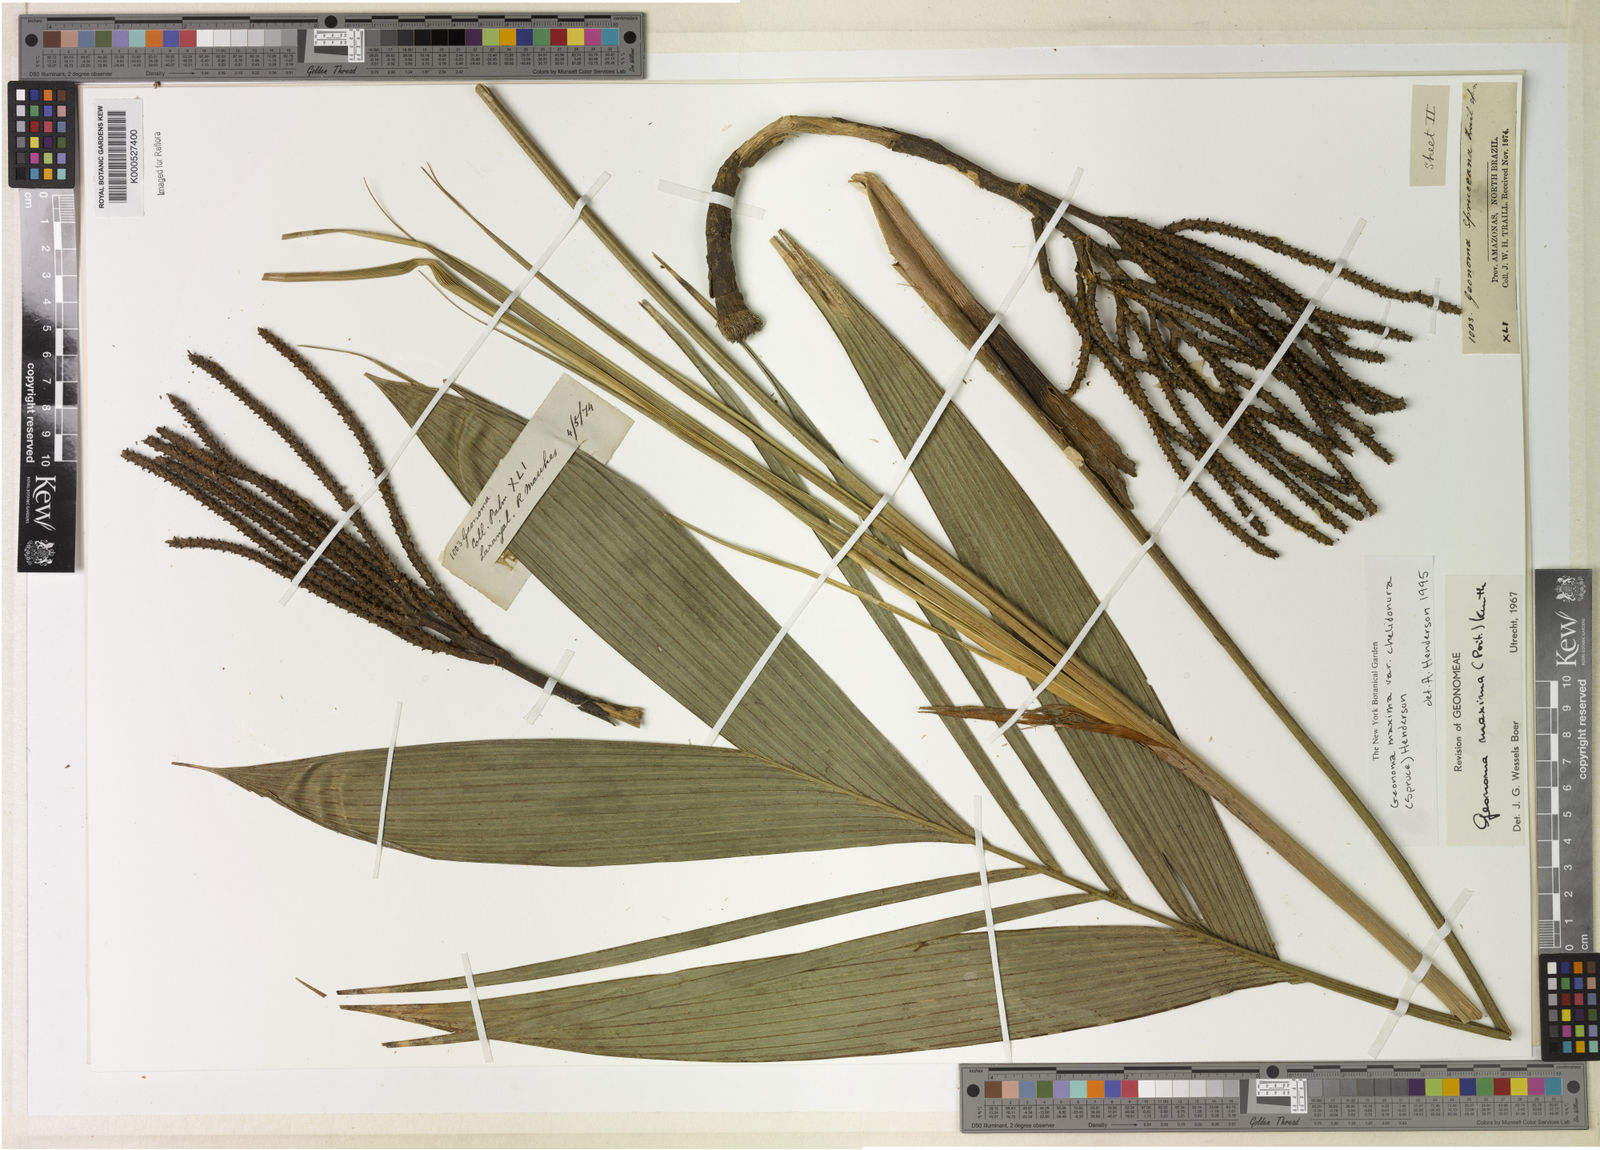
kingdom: Plantae
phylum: Tracheophyta
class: Liliopsida
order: Arecales
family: Arecaceae
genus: Geonoma
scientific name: Geonoma maxima
